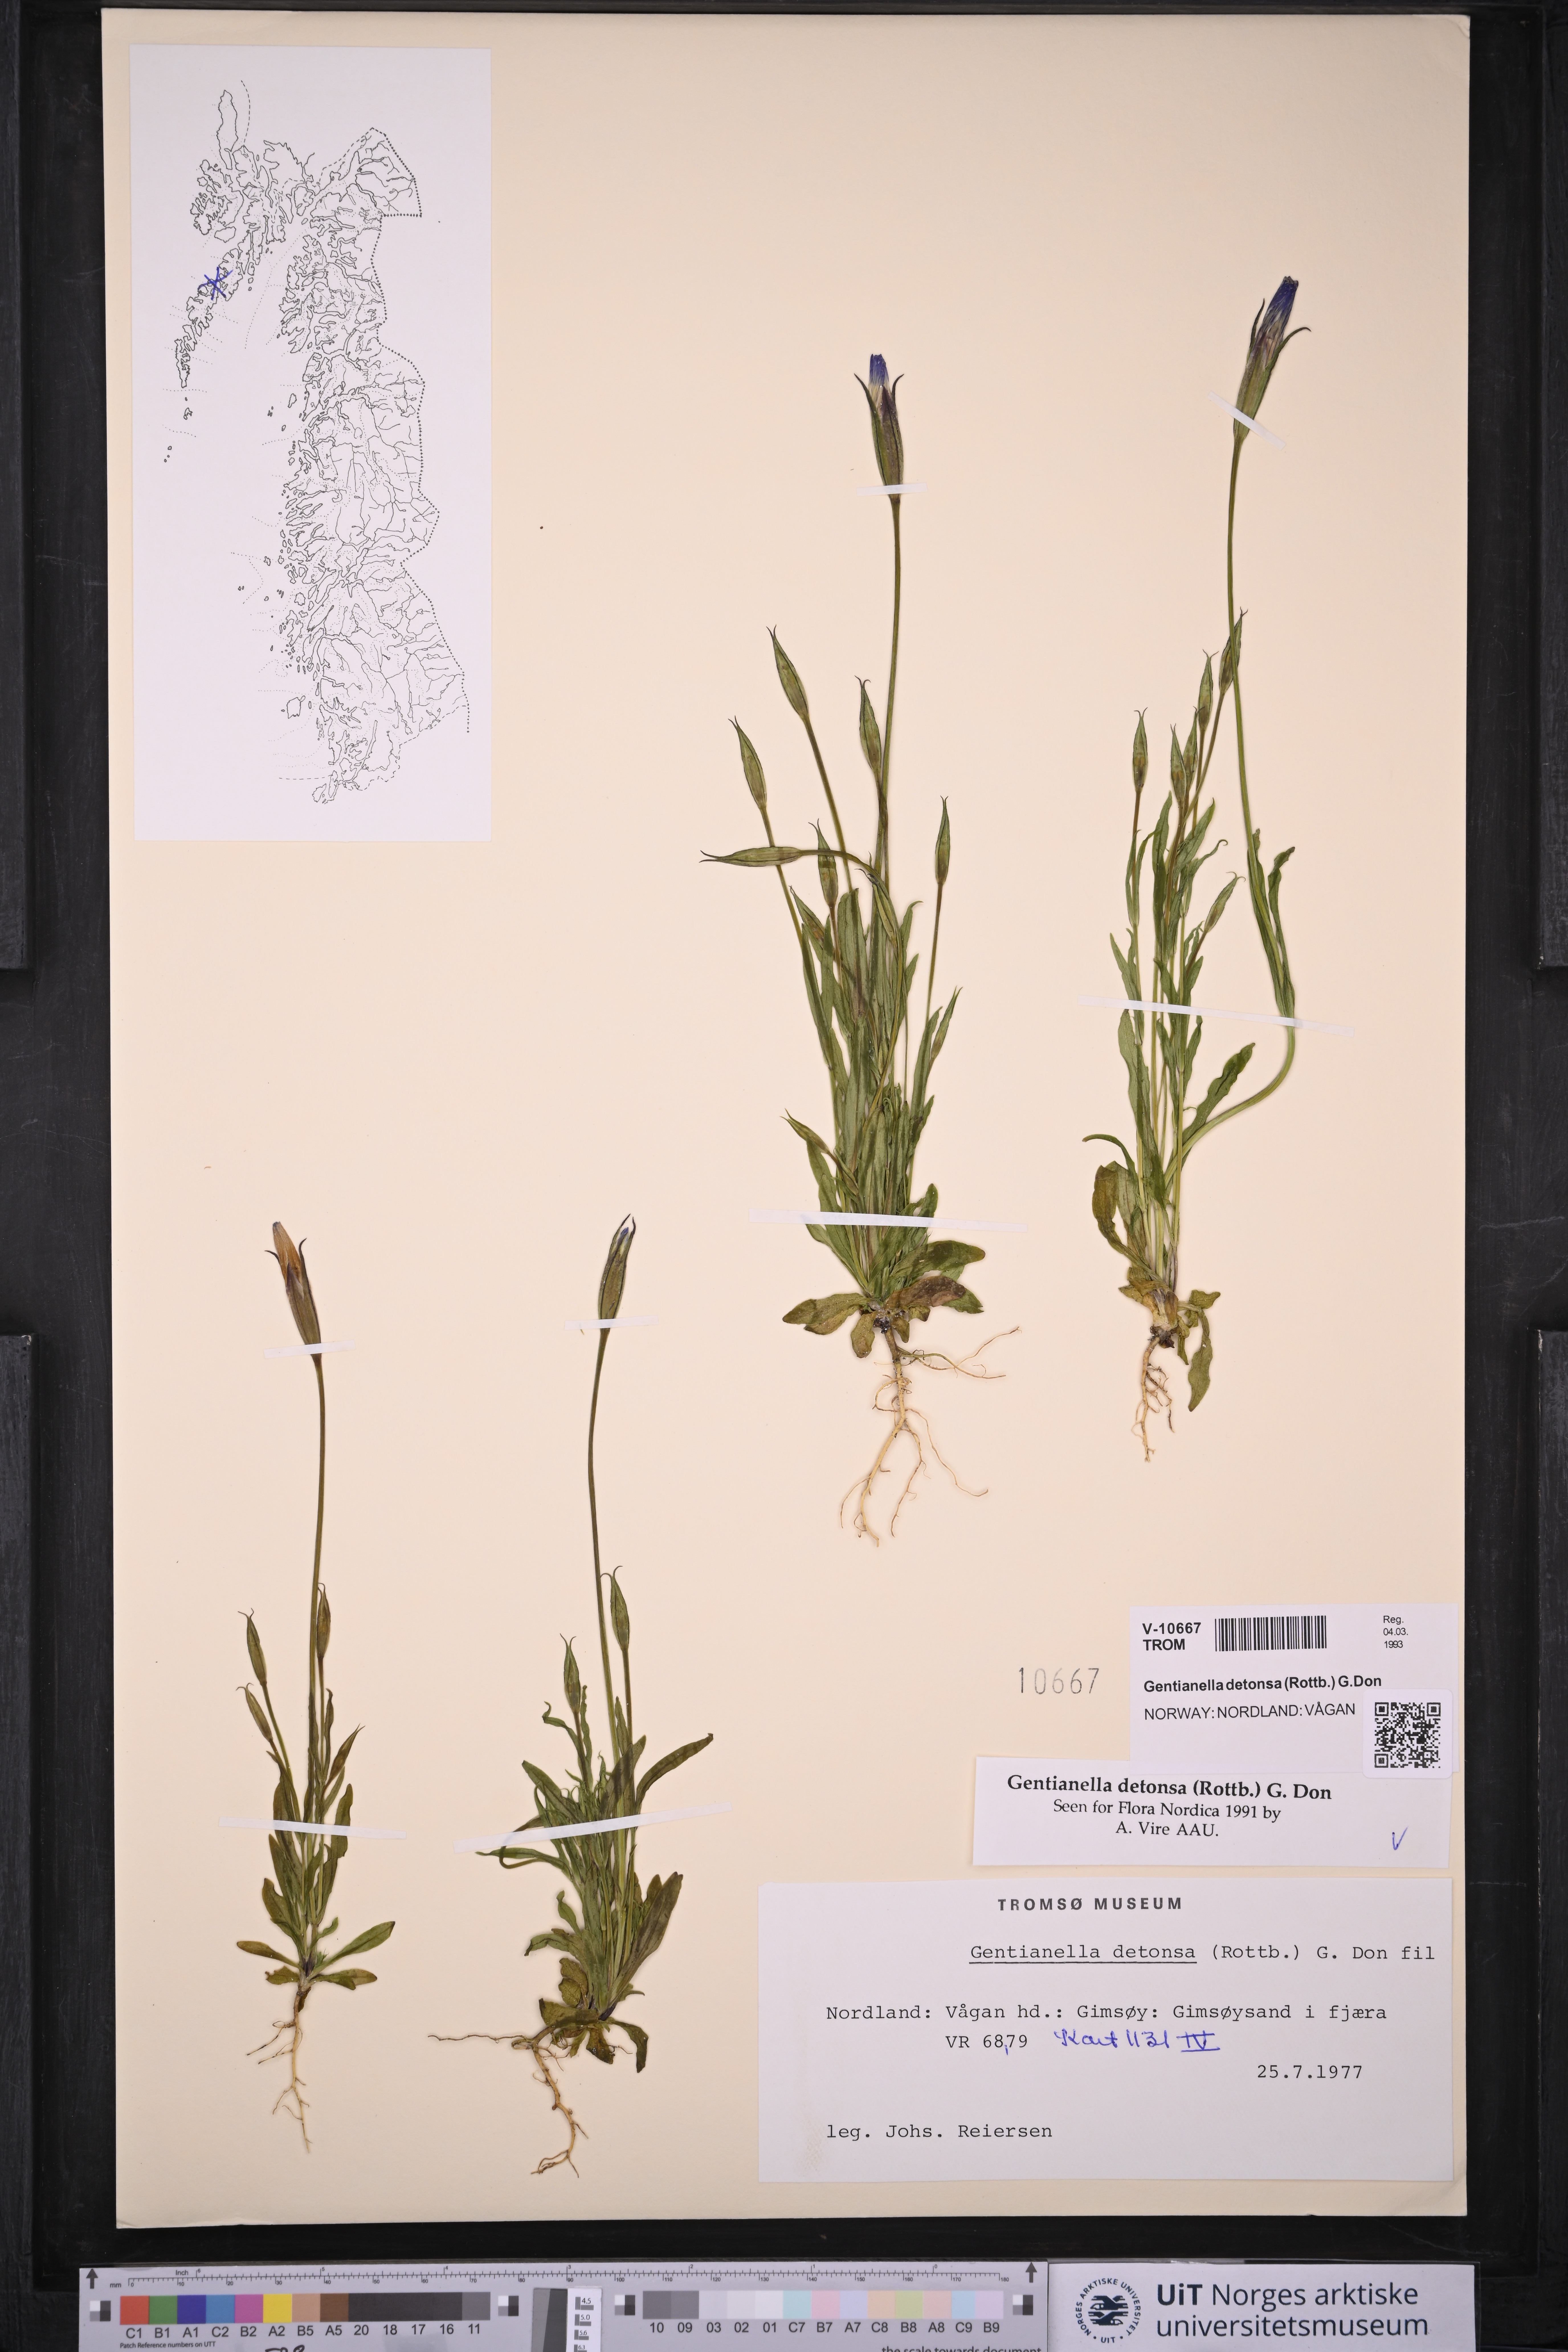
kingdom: Plantae
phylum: Tracheophyta
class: Magnoliopsida
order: Gentianales
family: Gentianaceae
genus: Gentianopsis
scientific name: Gentianopsis detonsa
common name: Fringed-gentian
